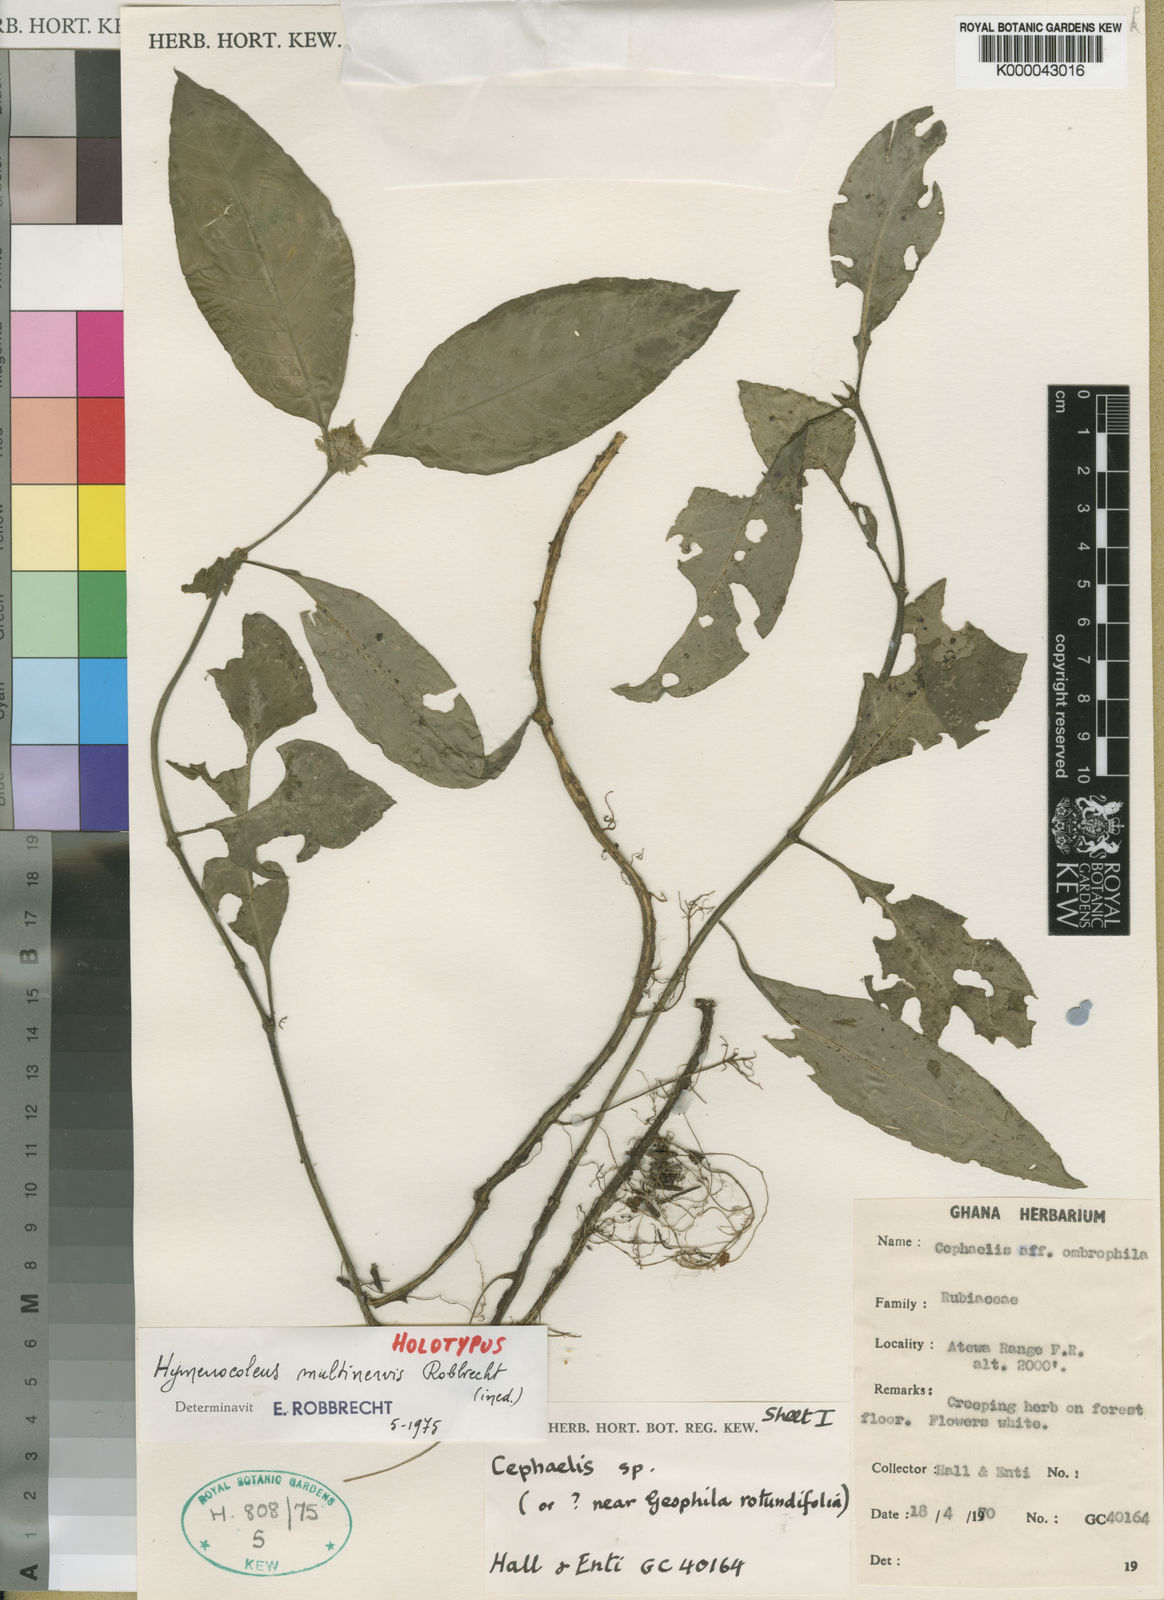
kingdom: Plantae
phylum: Tracheophyta
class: Magnoliopsida
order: Gentianales
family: Rubiaceae
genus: Hymenocoleus
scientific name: Hymenocoleus multinervis
